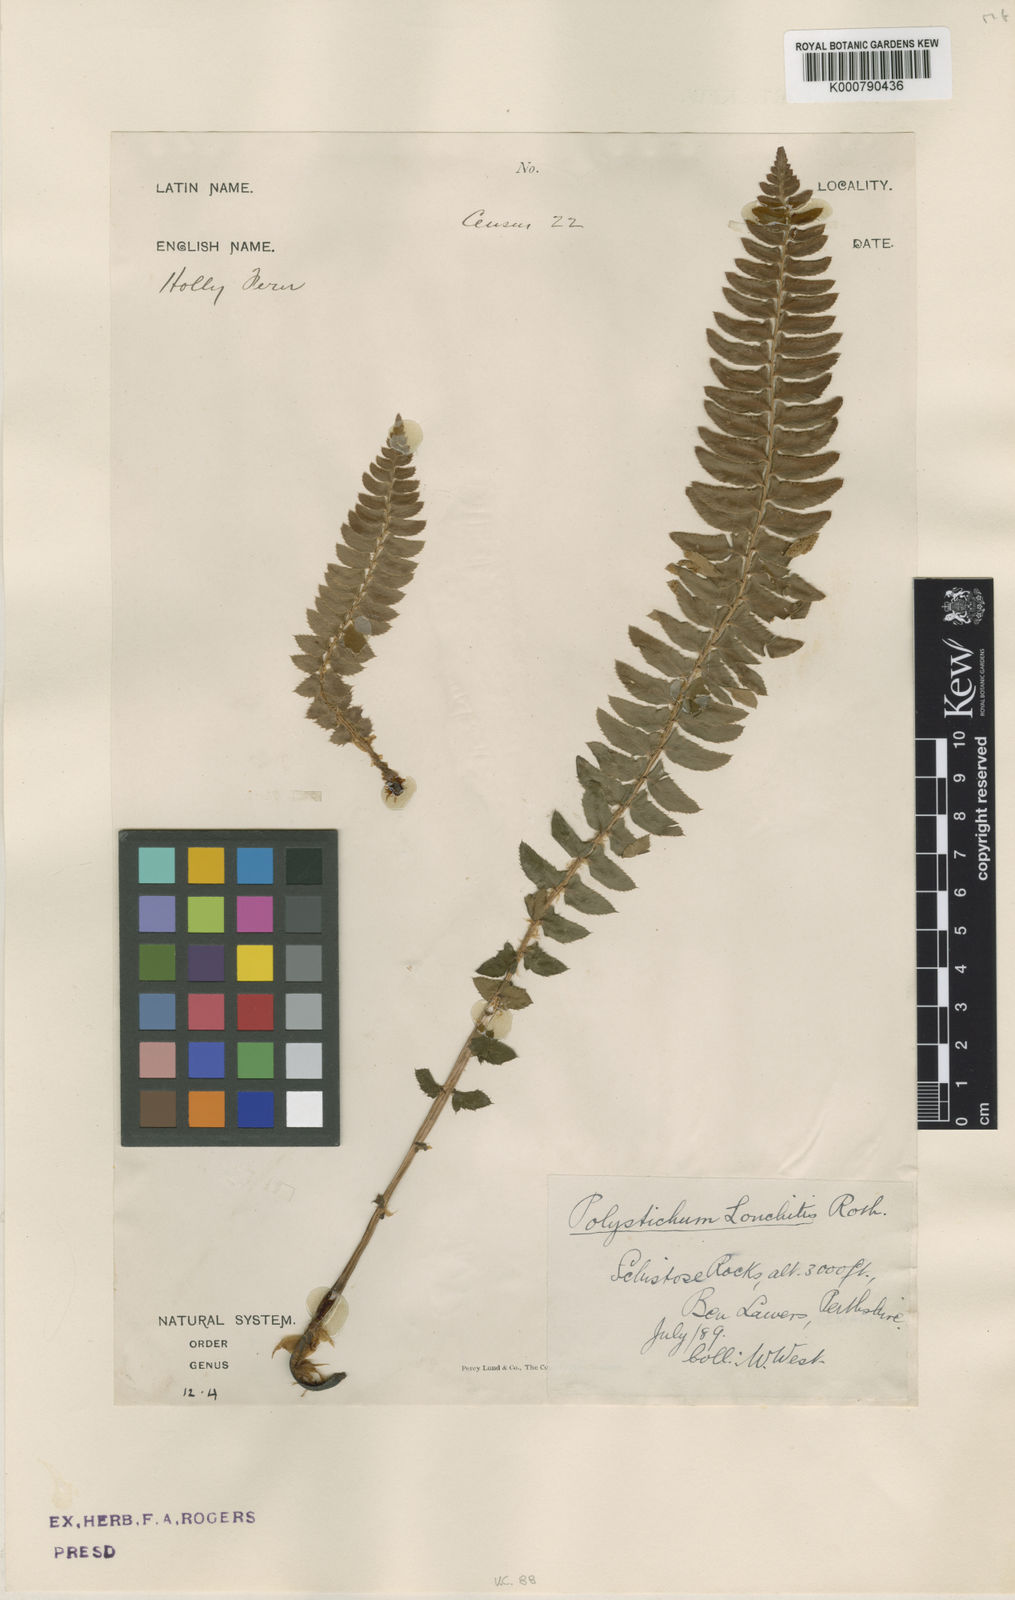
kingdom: Plantae
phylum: Tracheophyta
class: Polypodiopsida
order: Polypodiales
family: Dryopteridaceae
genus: Polystichum
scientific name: Polystichum
